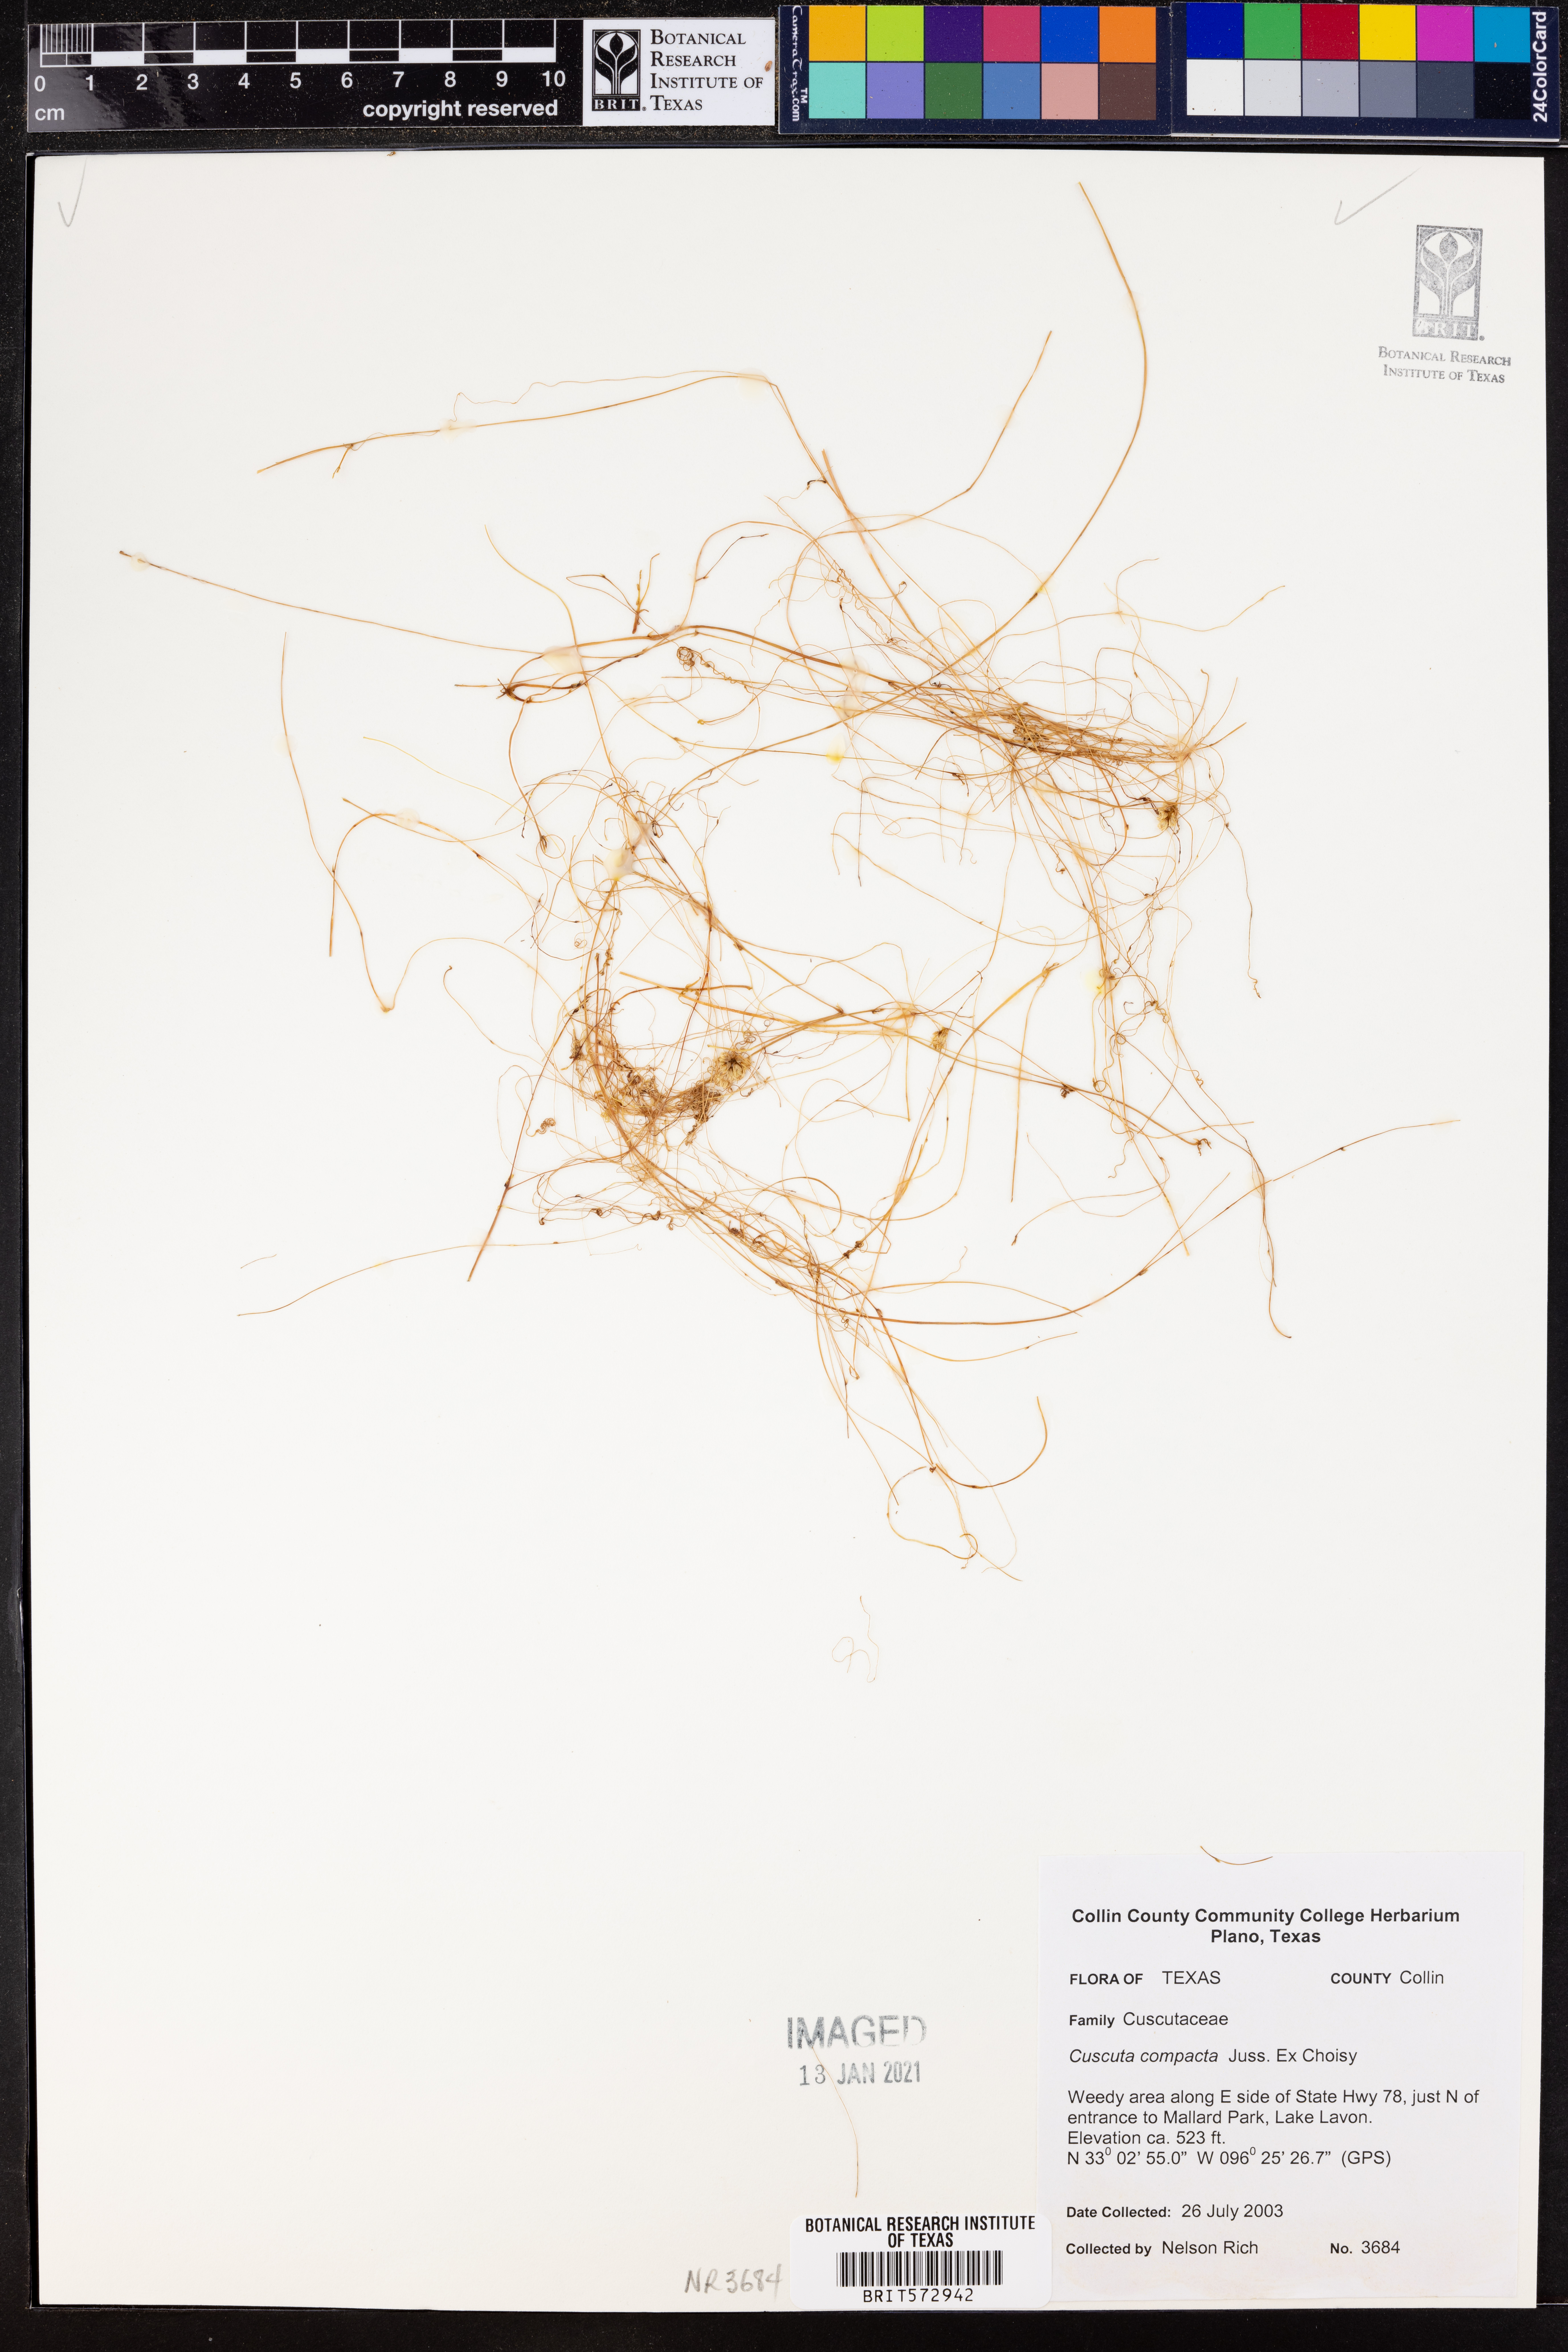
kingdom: Plantae
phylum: Tracheophyta
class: Magnoliopsida
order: Solanales
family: Convolvulaceae
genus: Cuscuta
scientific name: Cuscuta compacta
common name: Compact dodder
